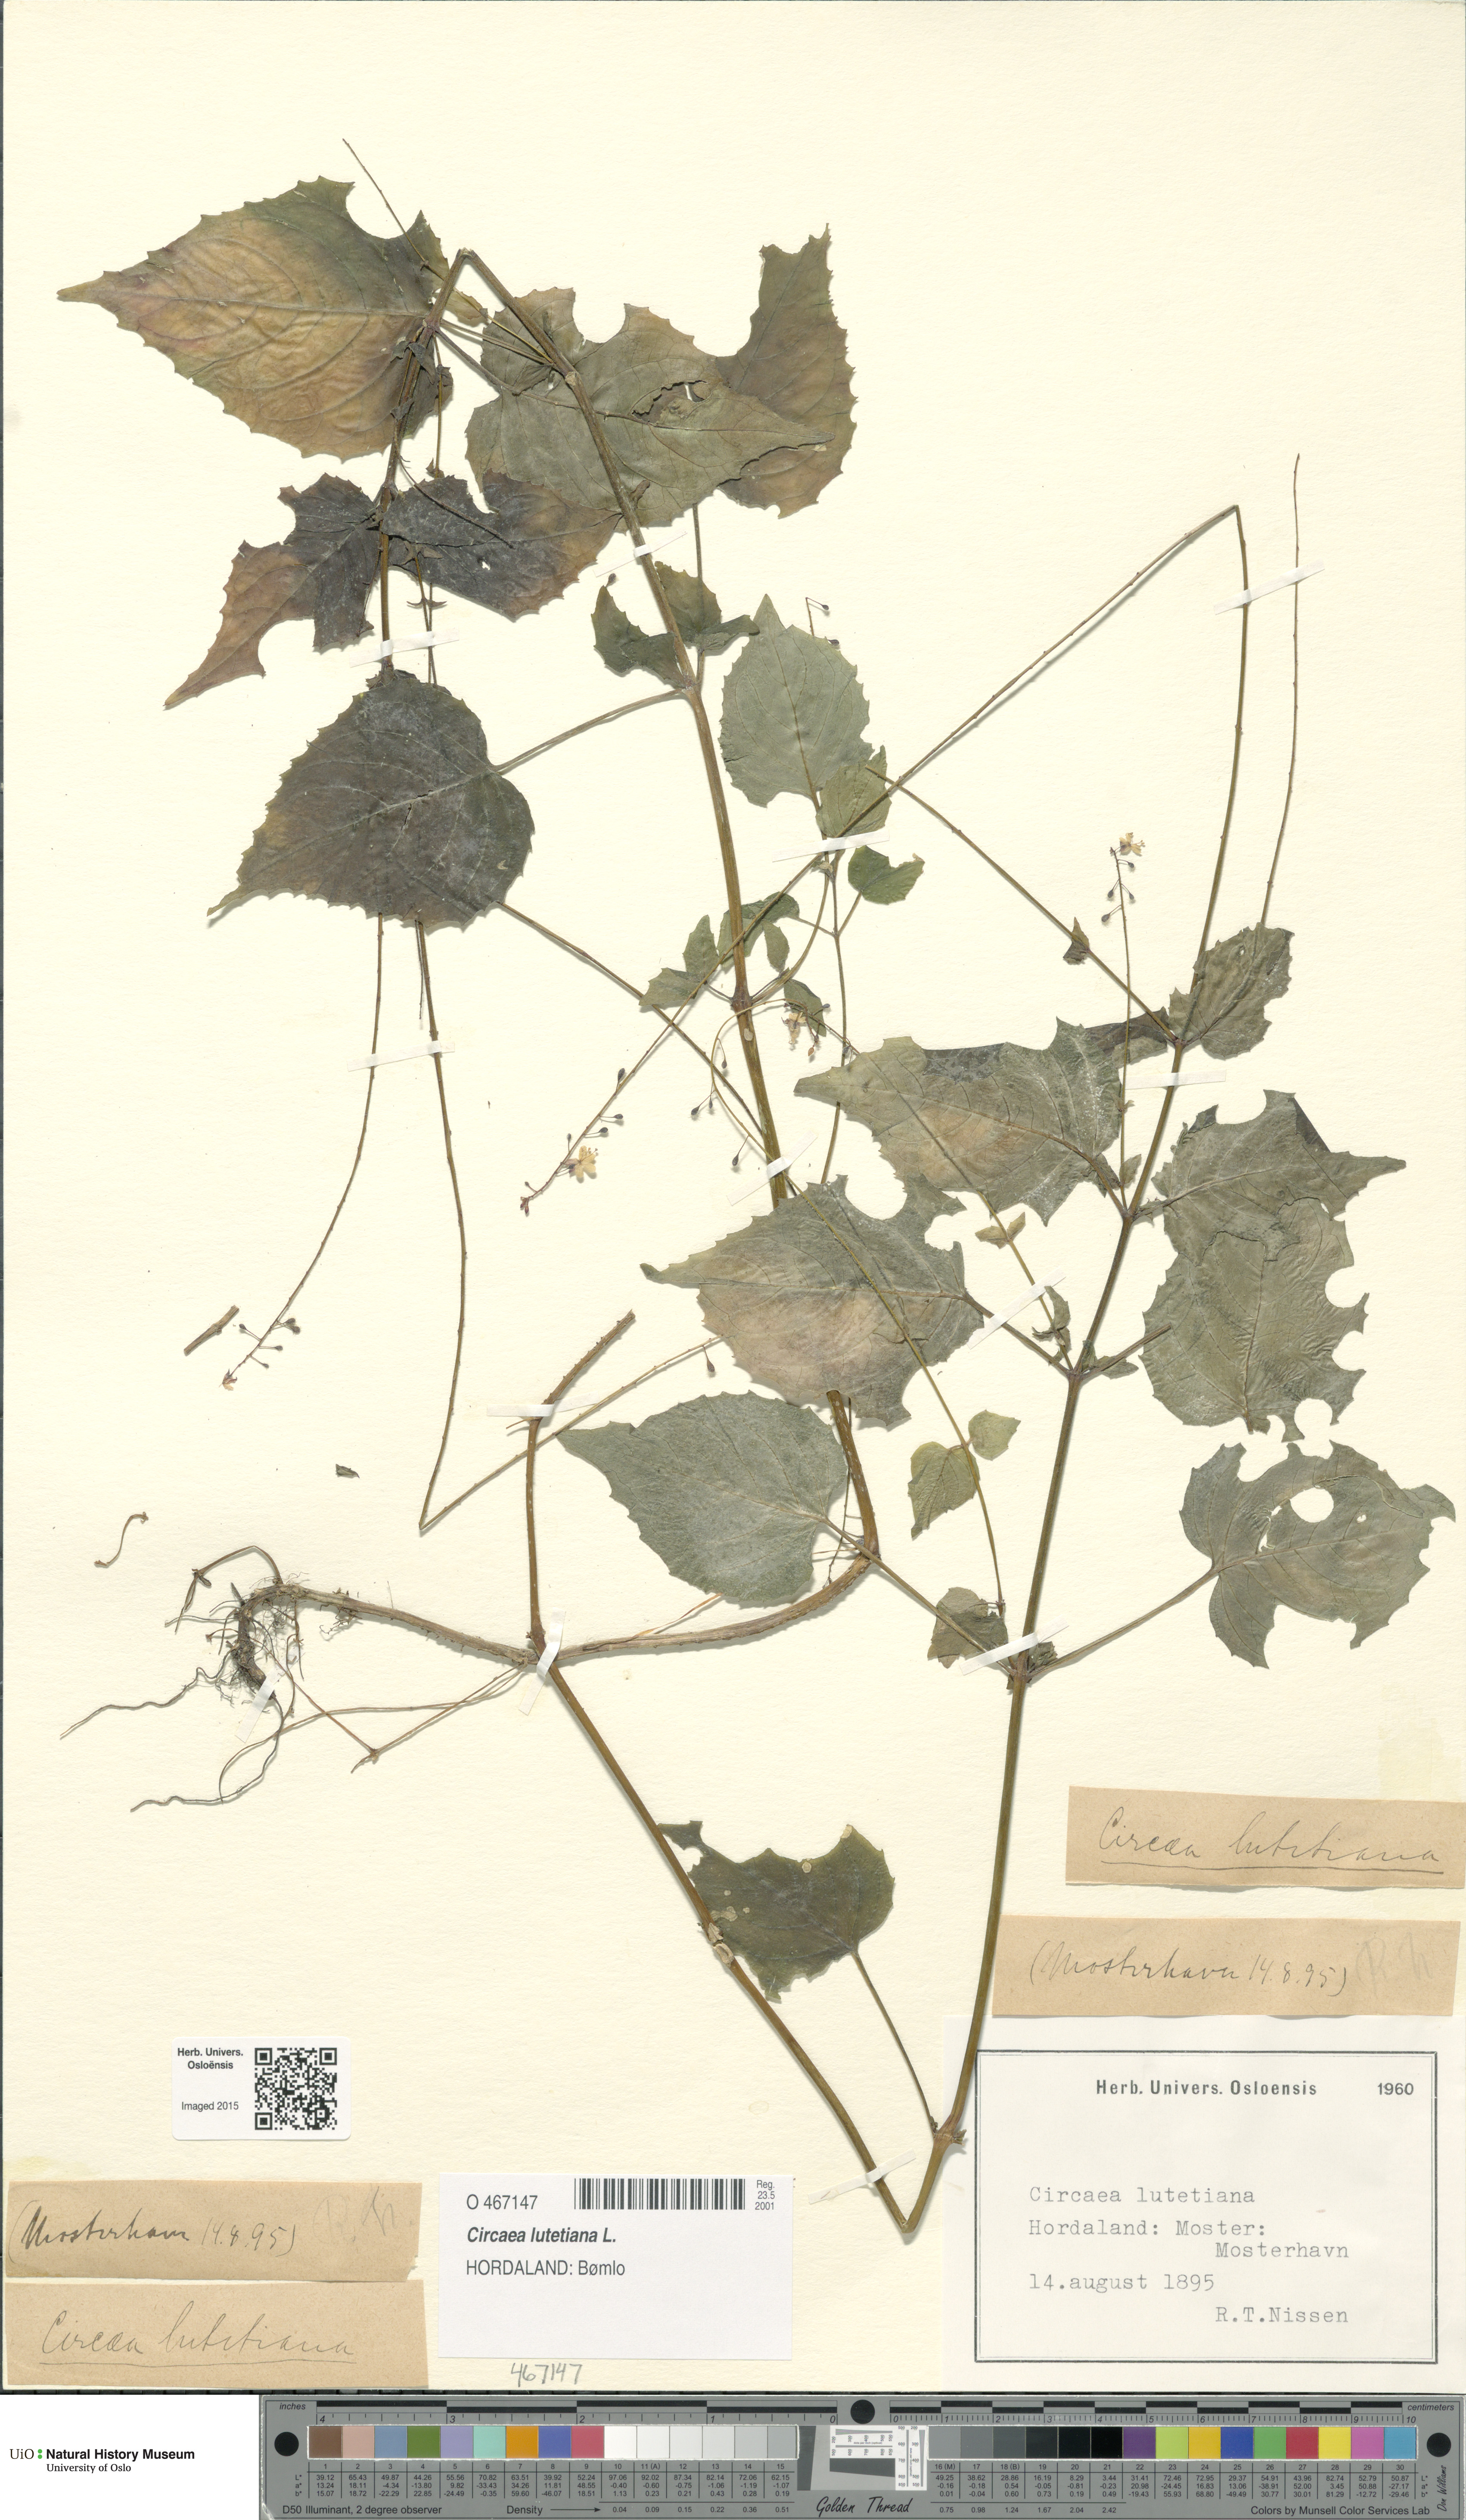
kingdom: Plantae
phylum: Tracheophyta
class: Magnoliopsida
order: Myrtales
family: Onagraceae
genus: Circaea
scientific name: Circaea lutetiana
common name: Enchanter's-nightshade
